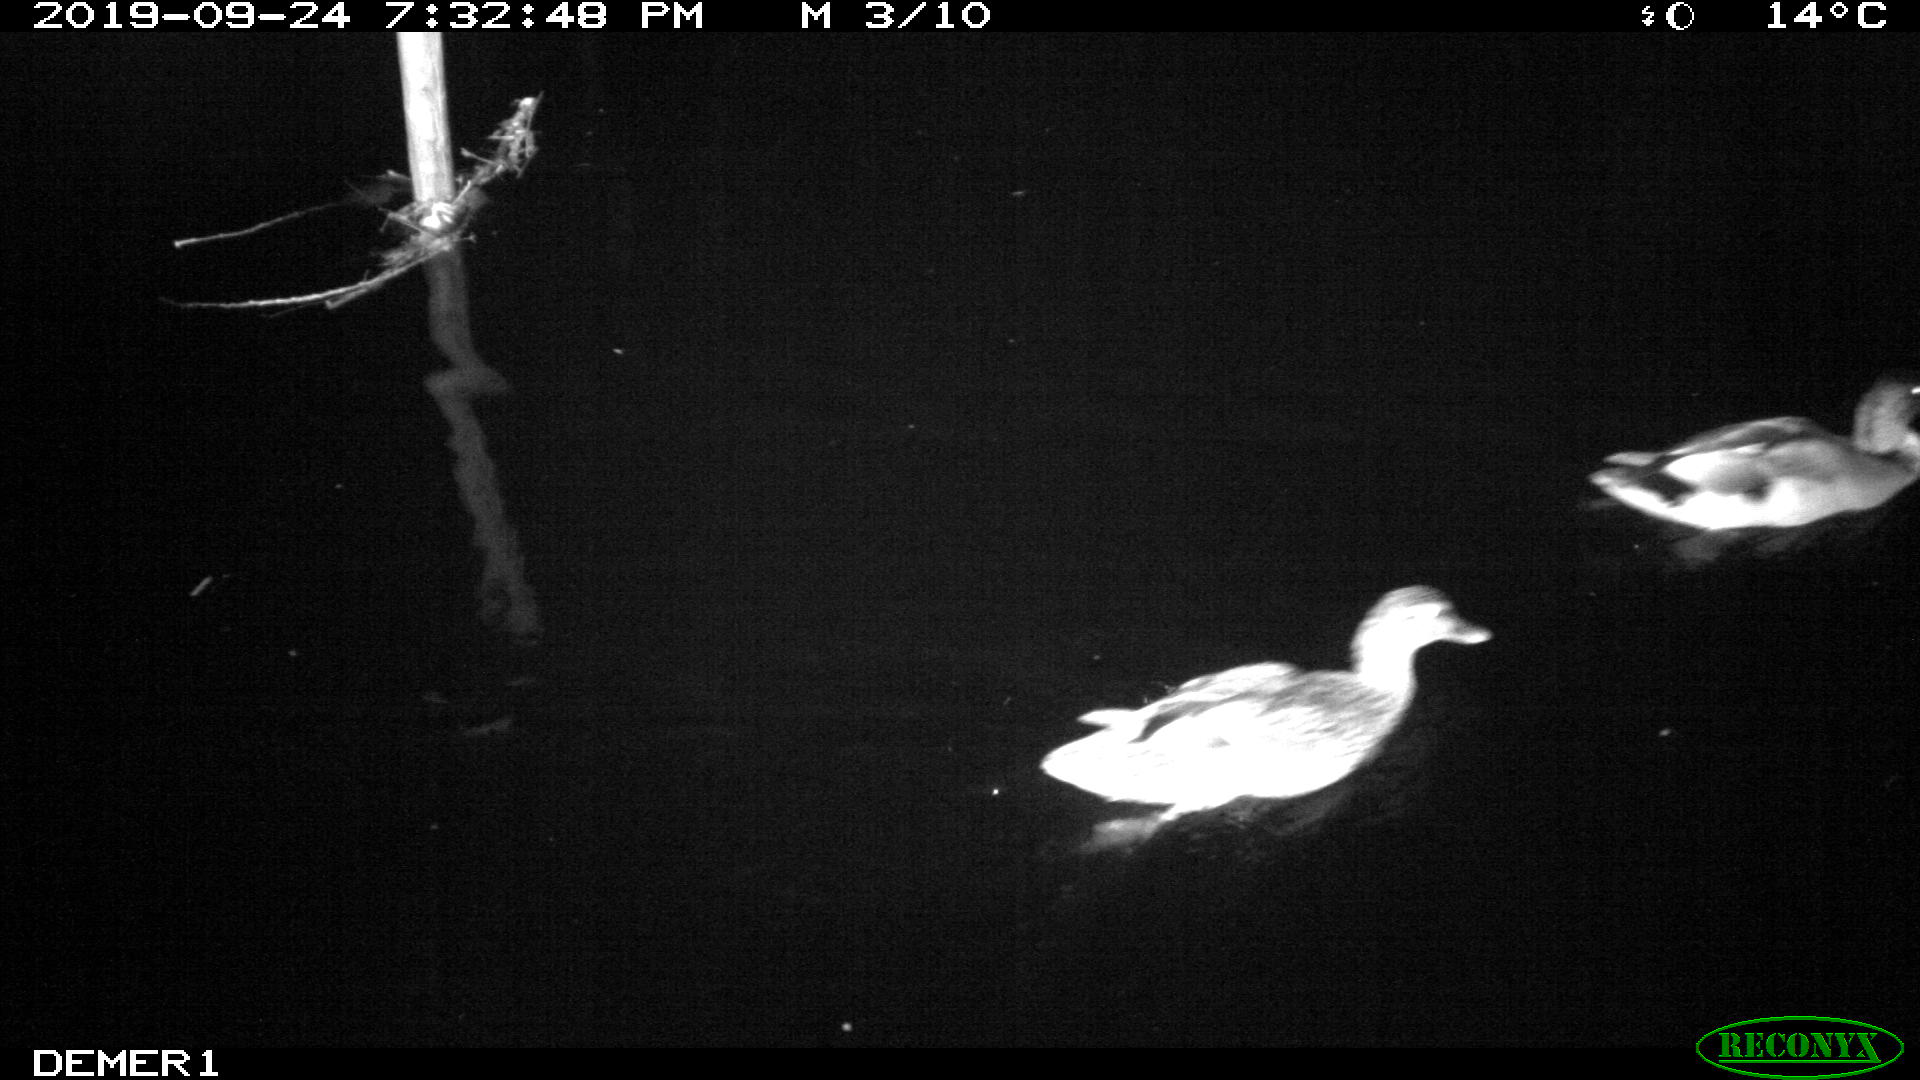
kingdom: Animalia
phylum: Chordata
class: Aves
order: Anseriformes
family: Anatidae
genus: Anas
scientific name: Anas platyrhynchos
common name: Mallard
